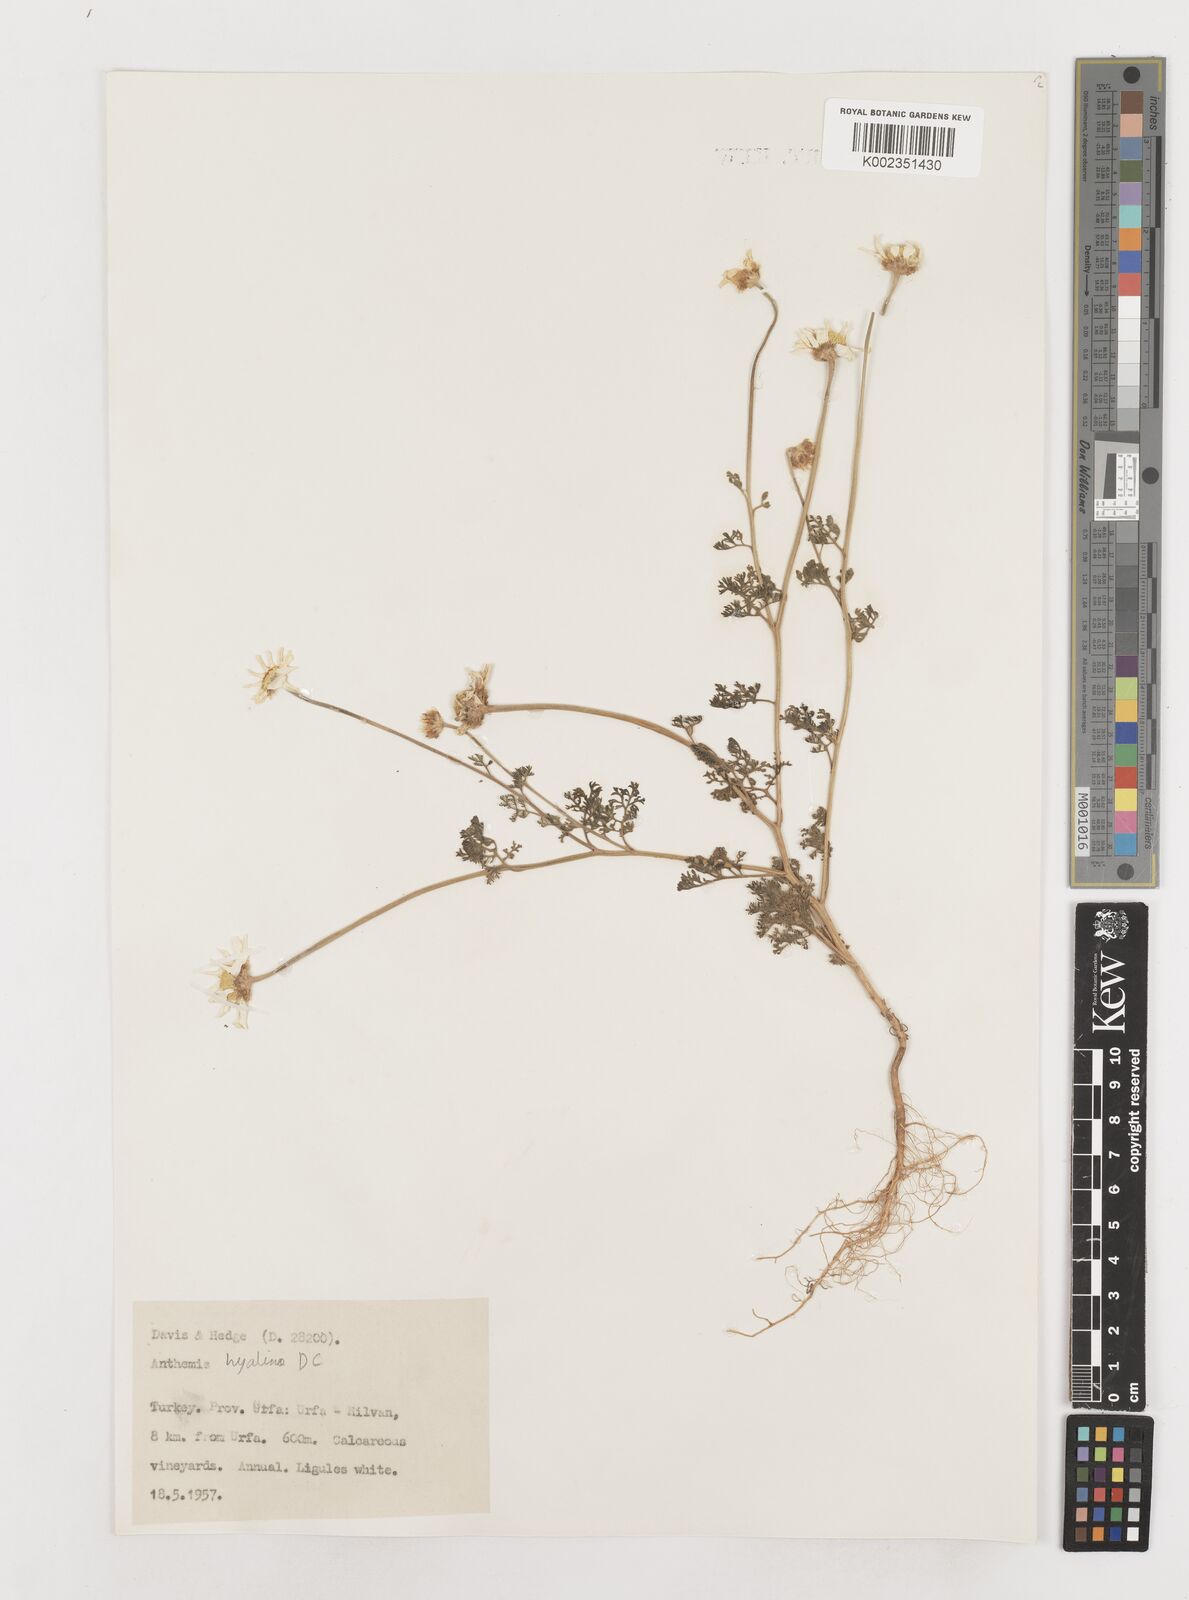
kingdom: Plantae
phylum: Tracheophyta
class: Magnoliopsida
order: Asterales
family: Asteraceae
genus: Anthemis
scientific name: Anthemis hyalina
